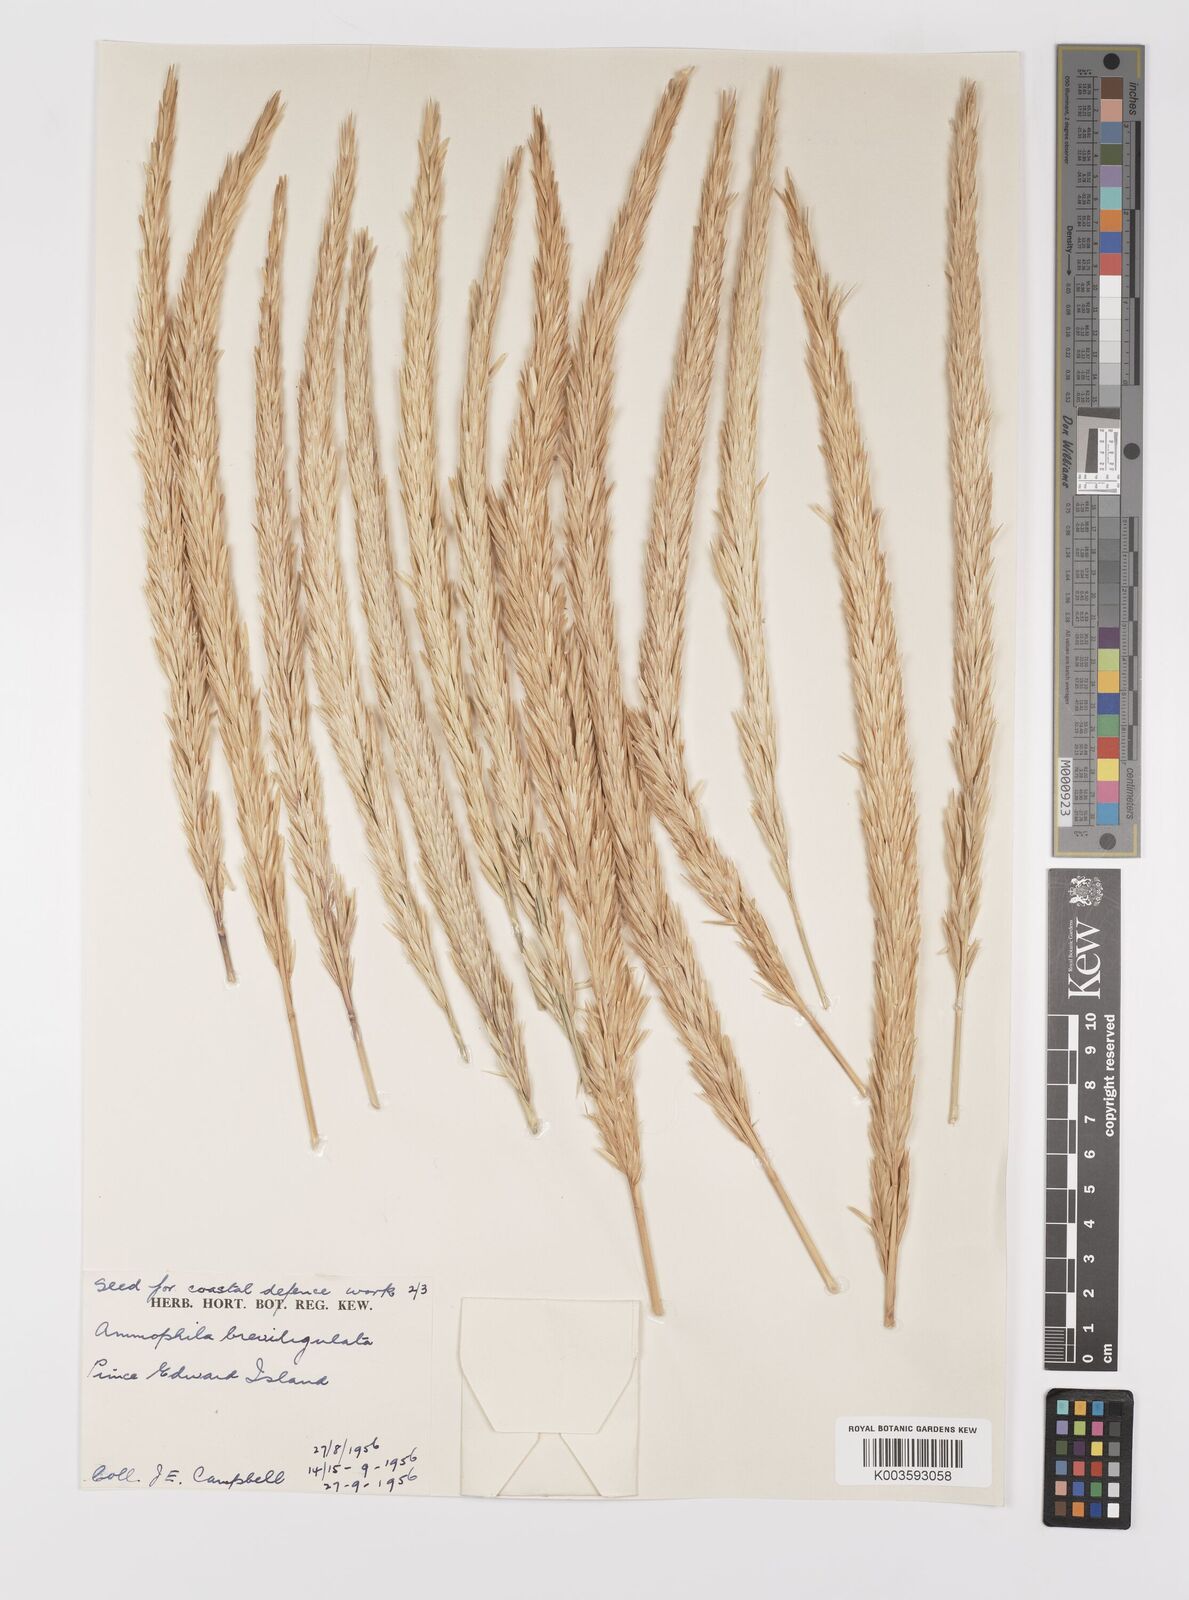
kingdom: Plantae
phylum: Tracheophyta
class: Liliopsida
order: Poales
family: Poaceae
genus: Calamagrostis
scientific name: Calamagrostis breviligulata
